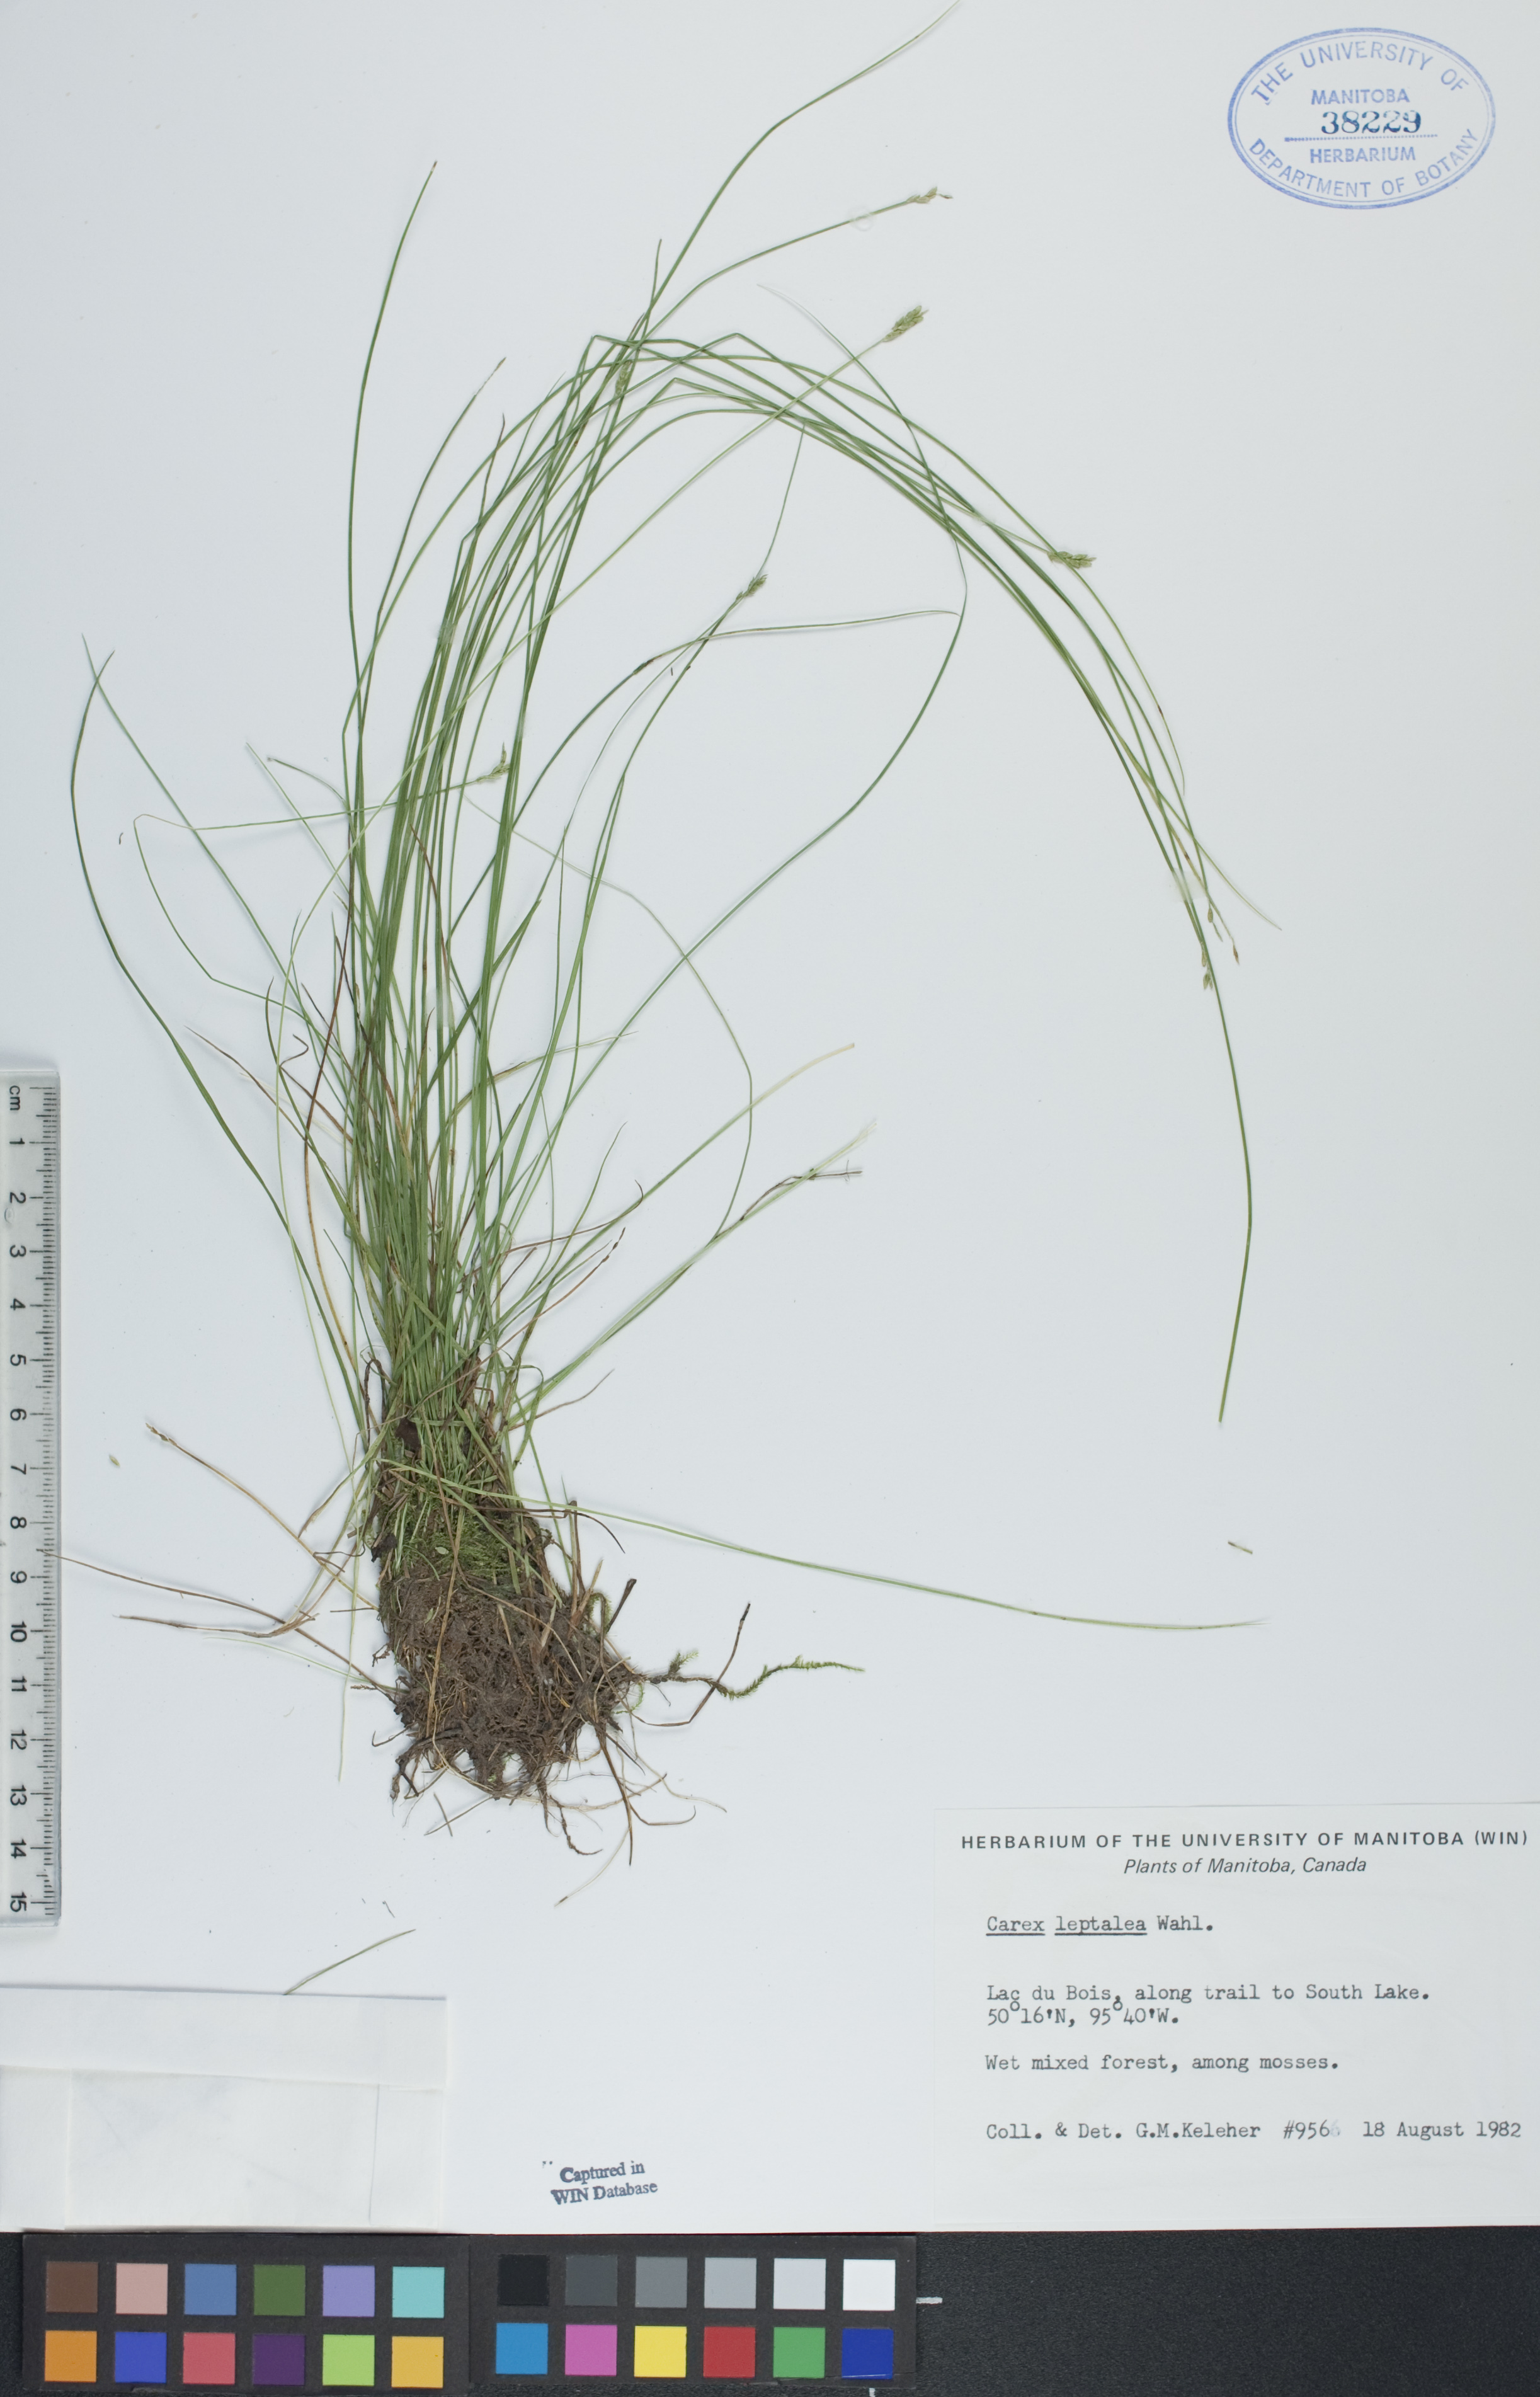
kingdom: Plantae
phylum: Tracheophyta
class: Liliopsida
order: Poales
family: Cyperaceae
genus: Carex
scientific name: Carex leptalea
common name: Bristly-stalked sedge
